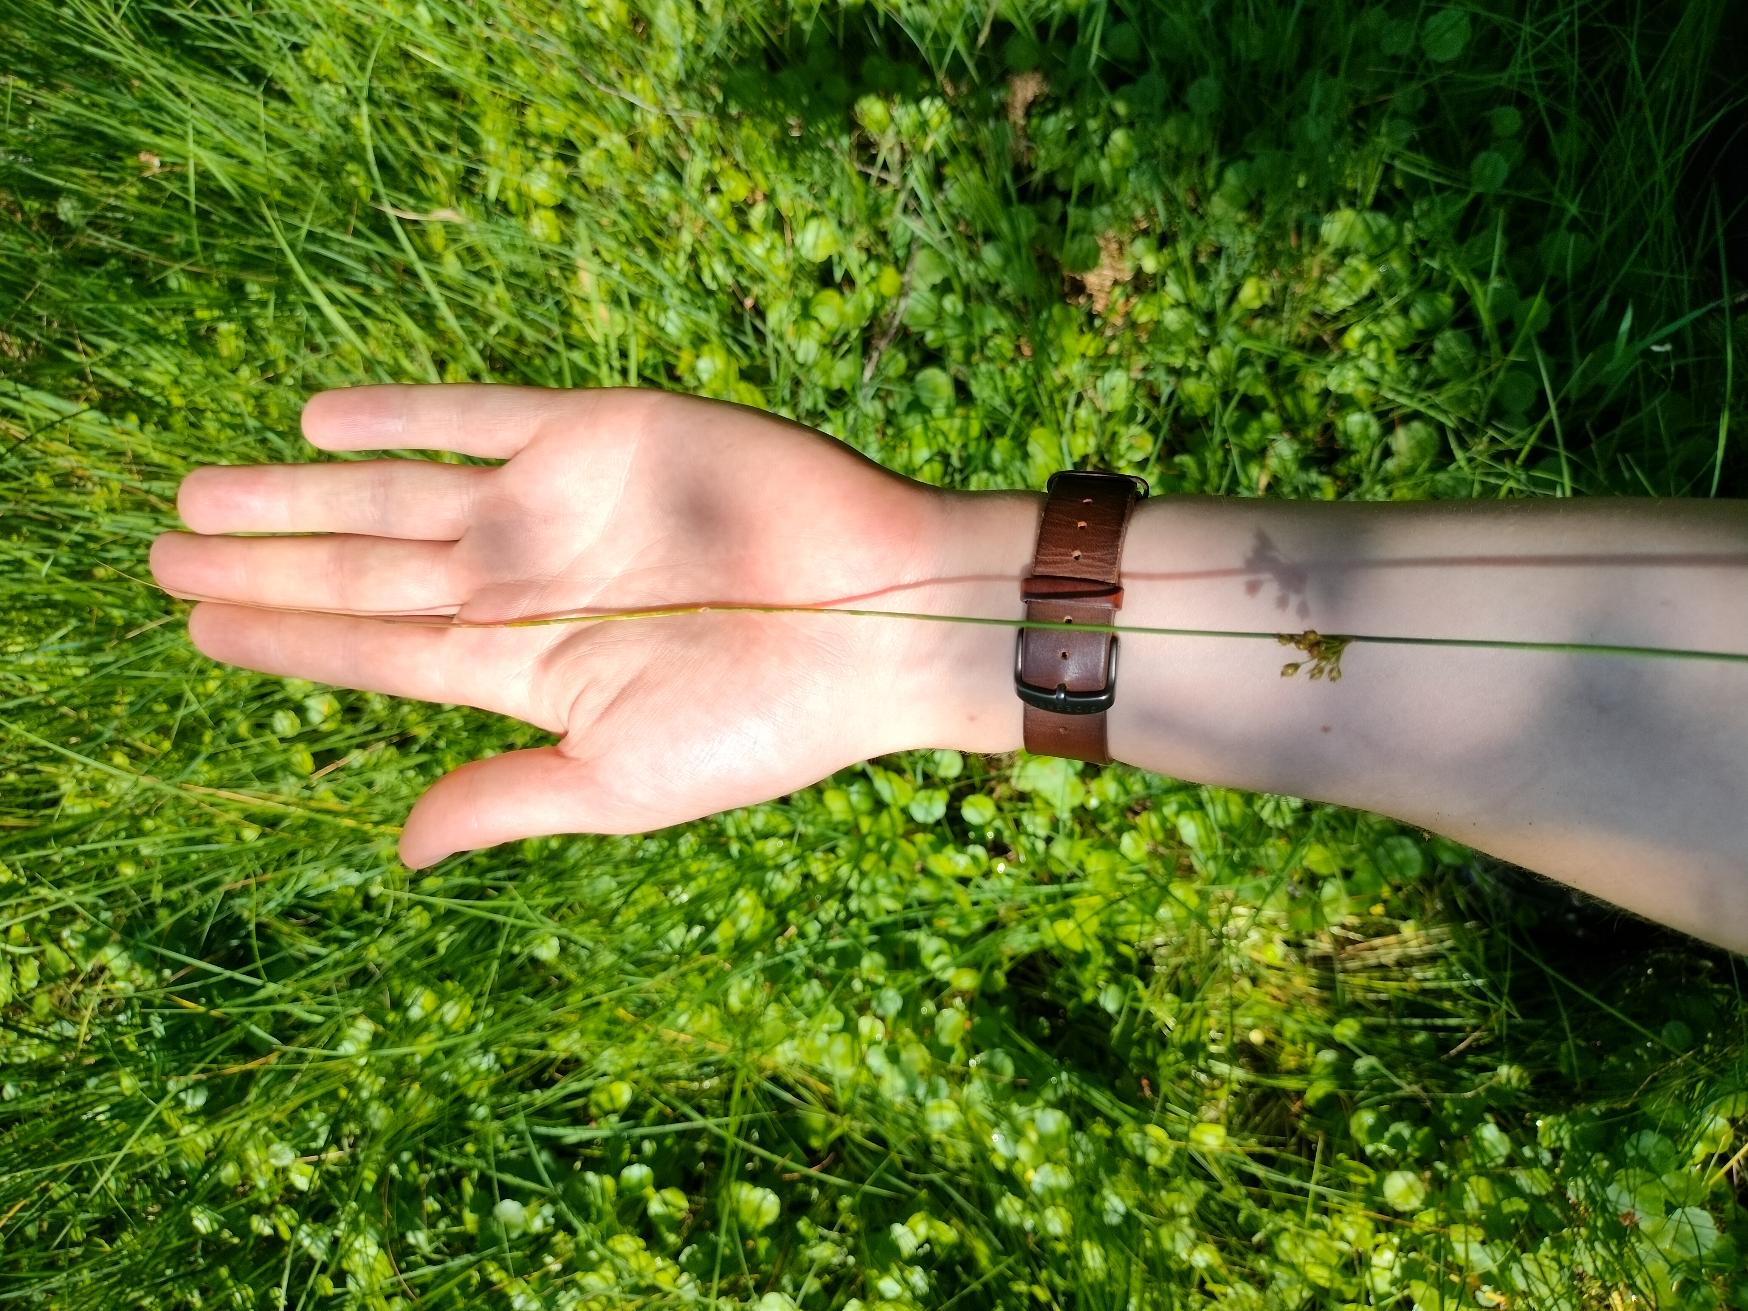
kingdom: Plantae
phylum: Tracheophyta
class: Liliopsida
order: Poales
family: Juncaceae
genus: Juncus
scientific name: Juncus filiformis
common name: Tråd-siv
